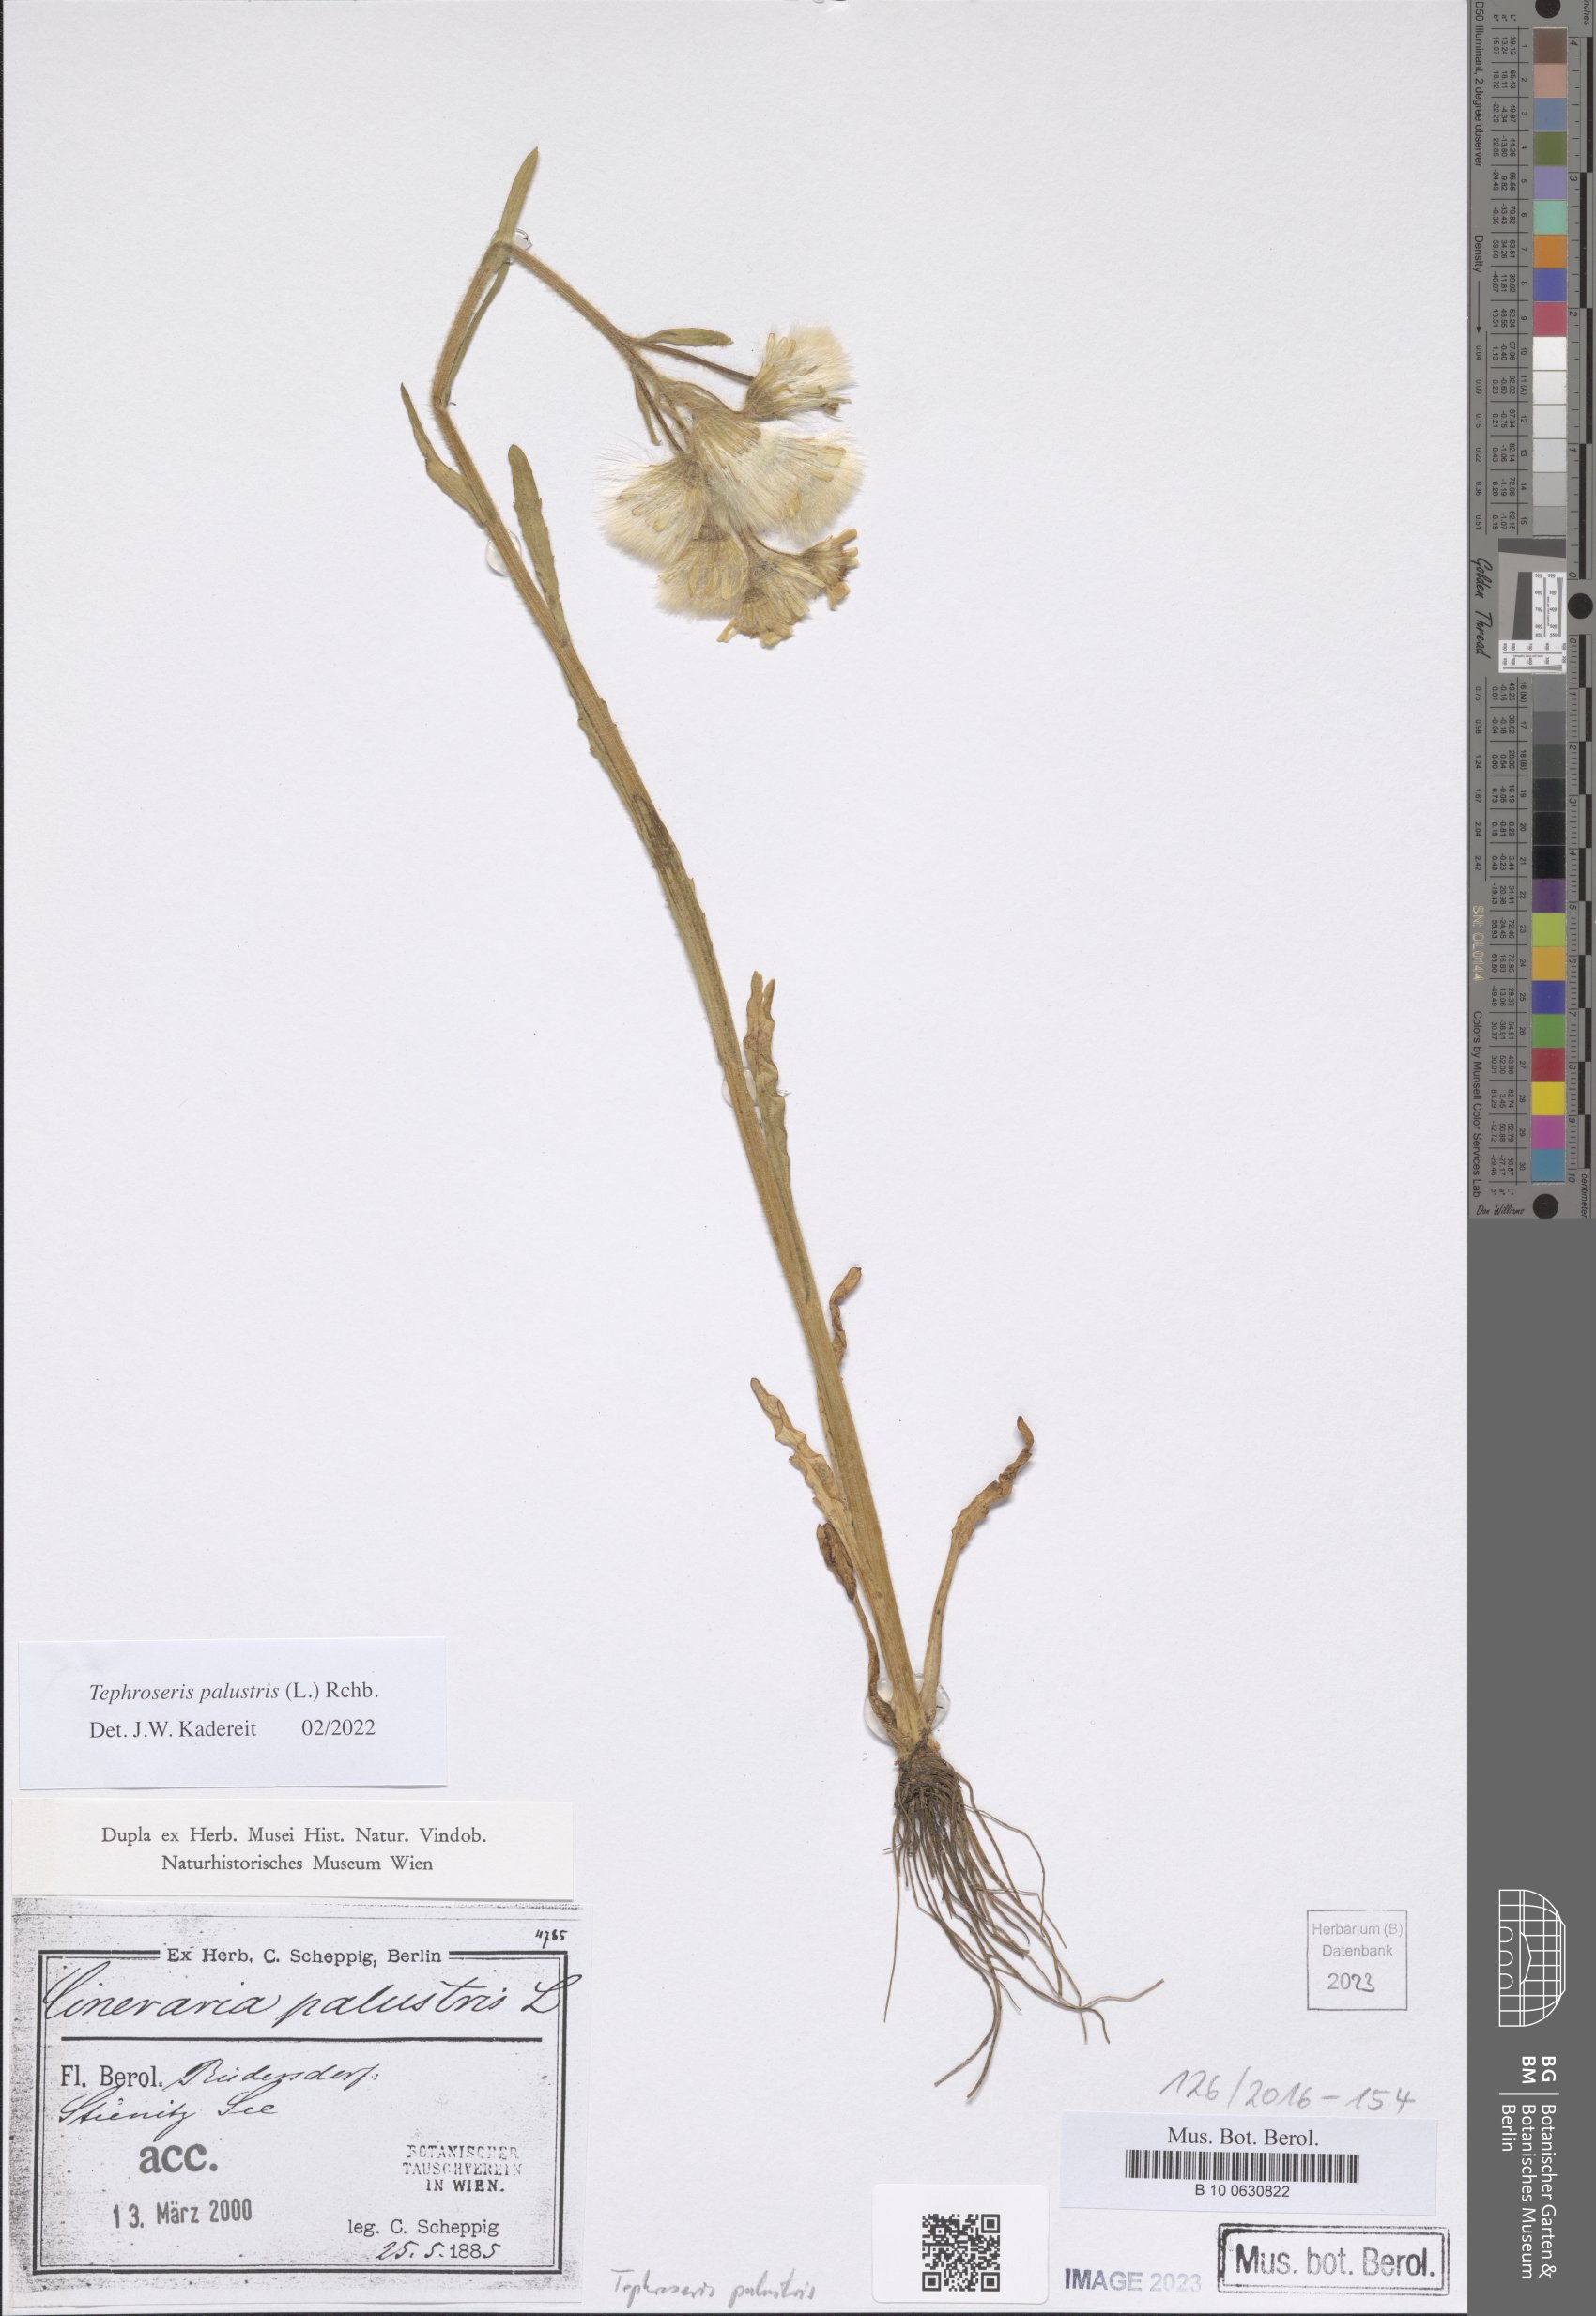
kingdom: Plantae
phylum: Tracheophyta
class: Magnoliopsida
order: Asterales
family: Asteraceae
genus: Tephroseris
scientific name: Tephroseris palustris
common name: Marsh fleawort
